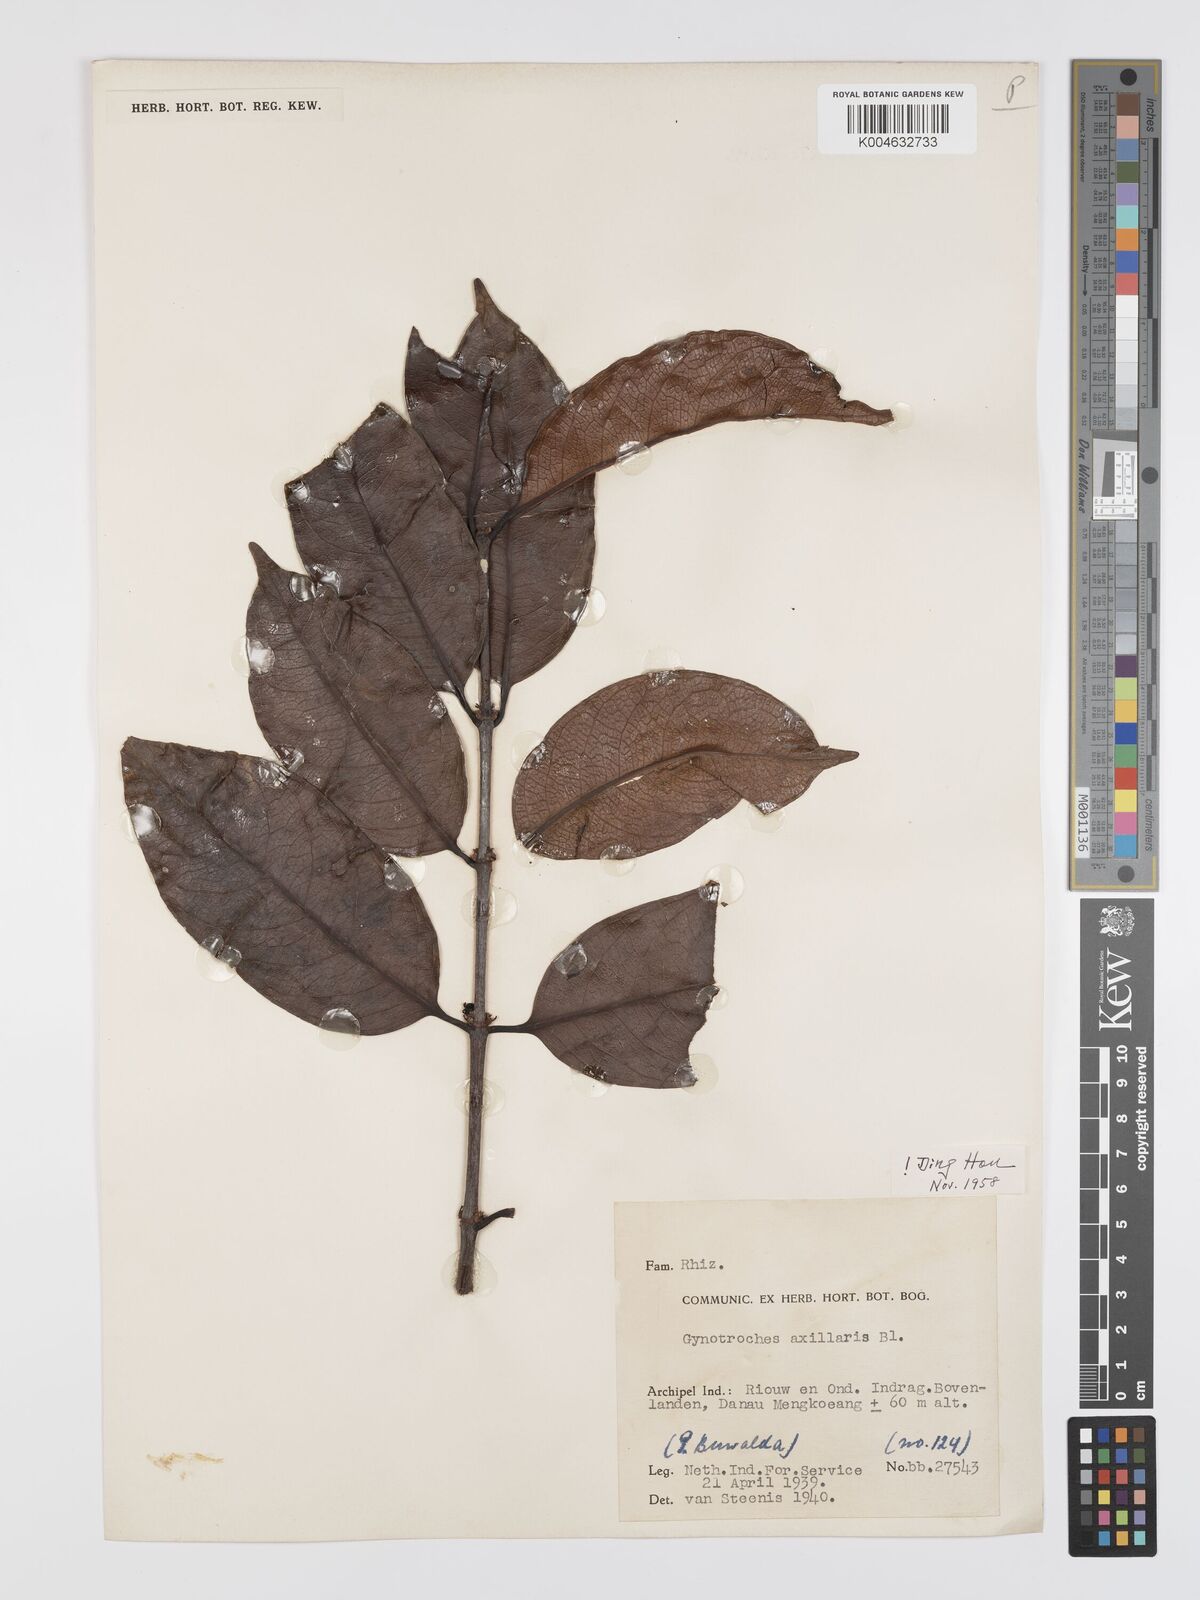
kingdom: Plantae
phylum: Tracheophyta
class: Magnoliopsida
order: Malpighiales
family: Rhizophoraceae
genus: Gynotroches
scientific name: Gynotroches axillaris
